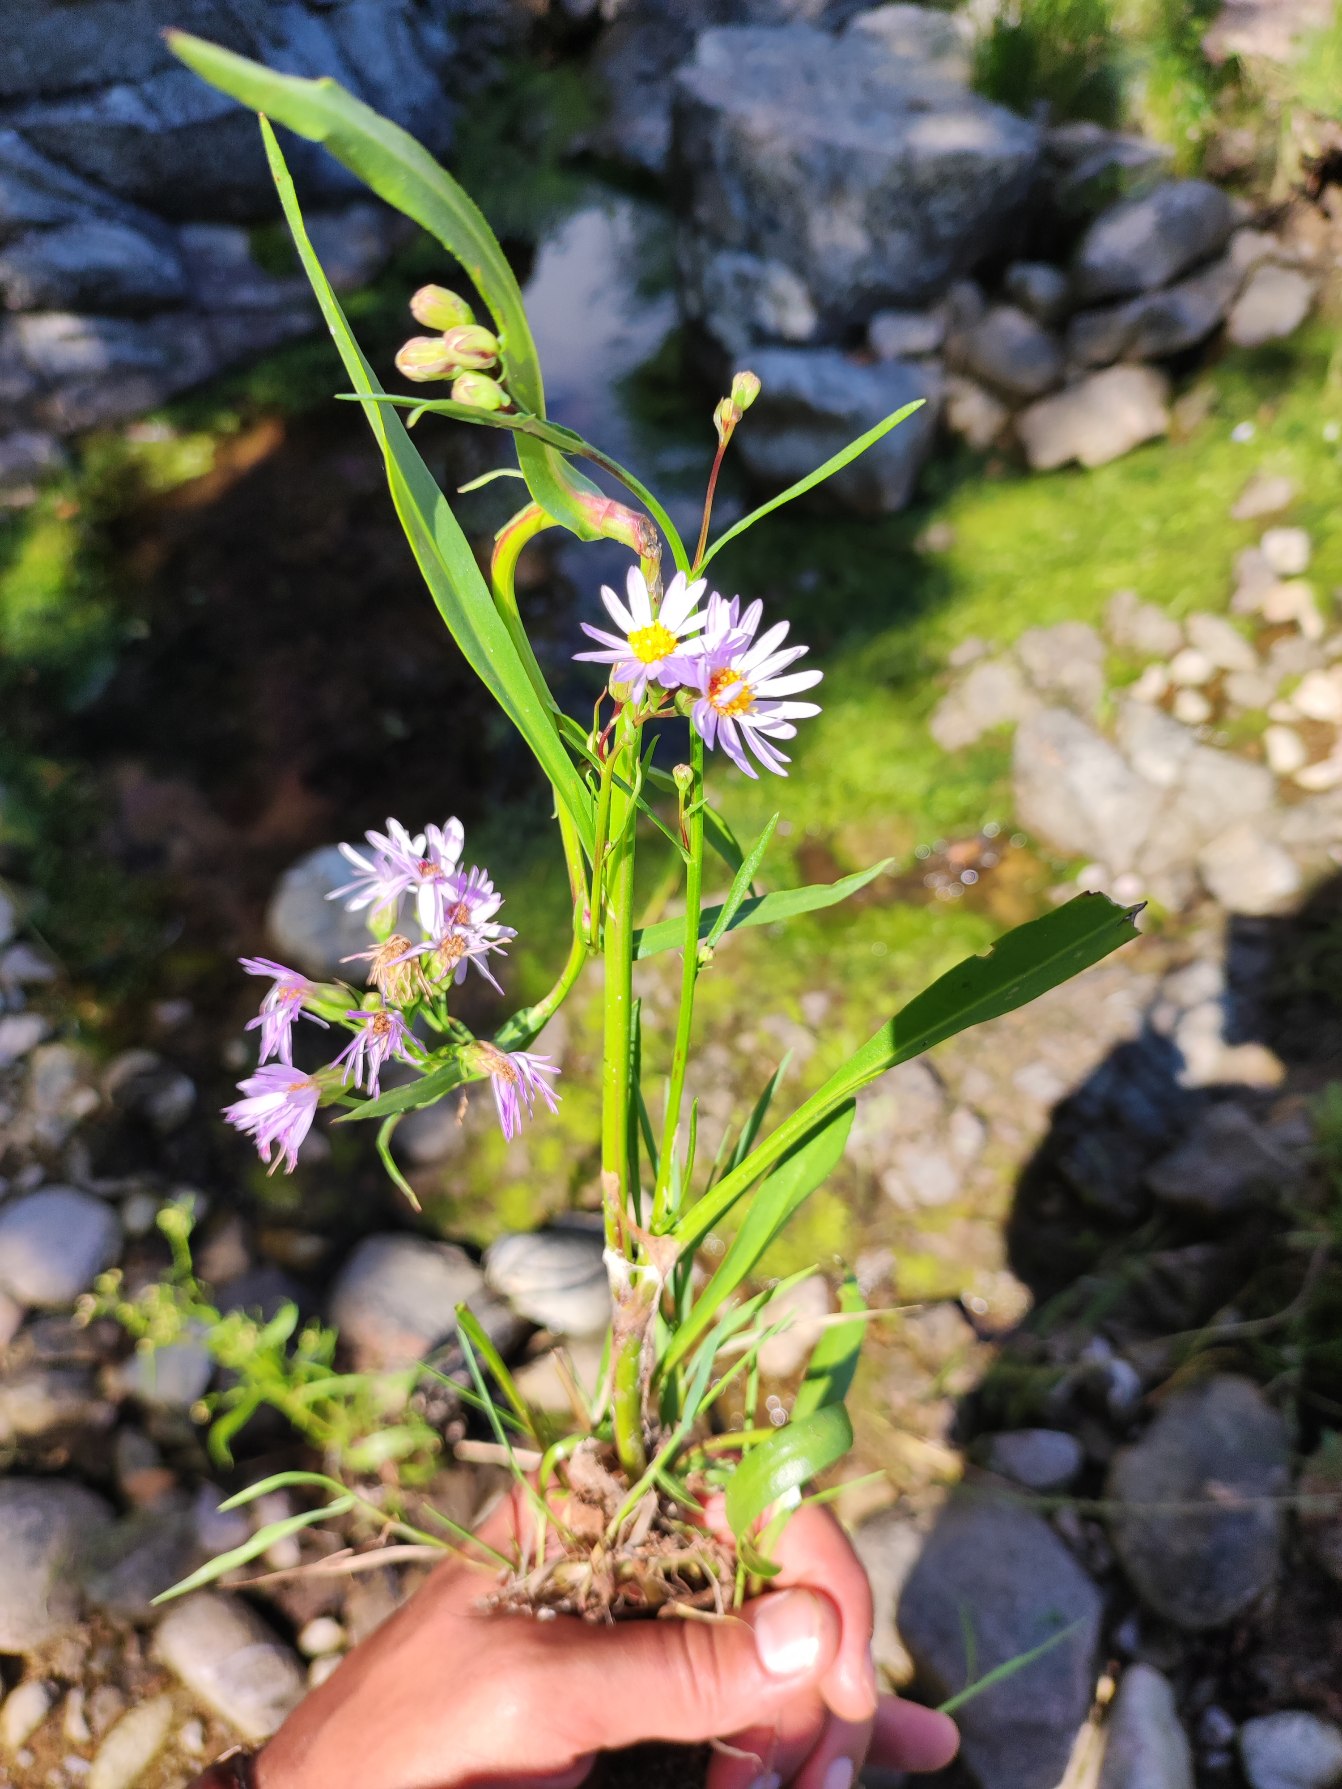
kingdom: Plantae
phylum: Tracheophyta
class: Magnoliopsida
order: Asterales
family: Asteraceae
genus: Tripolium
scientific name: Tripolium pannonicum
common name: Strandasters
